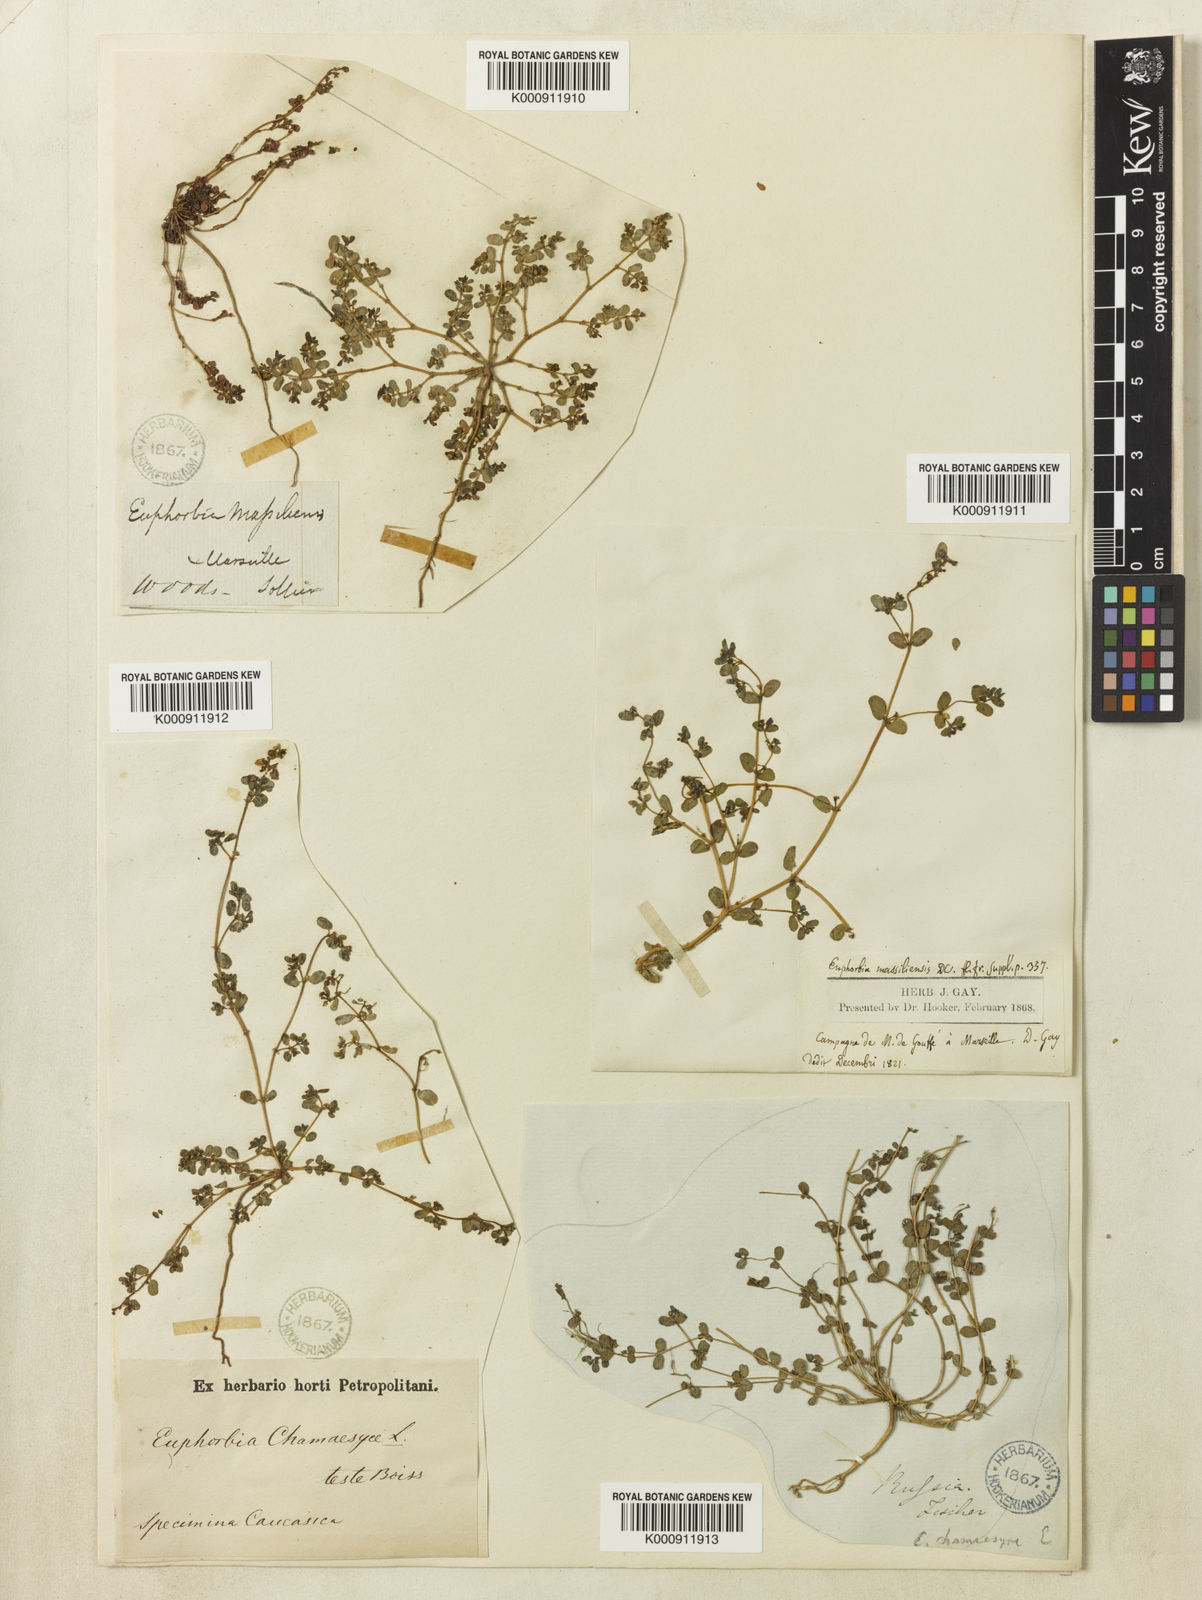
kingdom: Plantae
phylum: Tracheophyta
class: Magnoliopsida
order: Malpighiales
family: Euphorbiaceae
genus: Euphorbia
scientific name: Euphorbia chamaesyce
